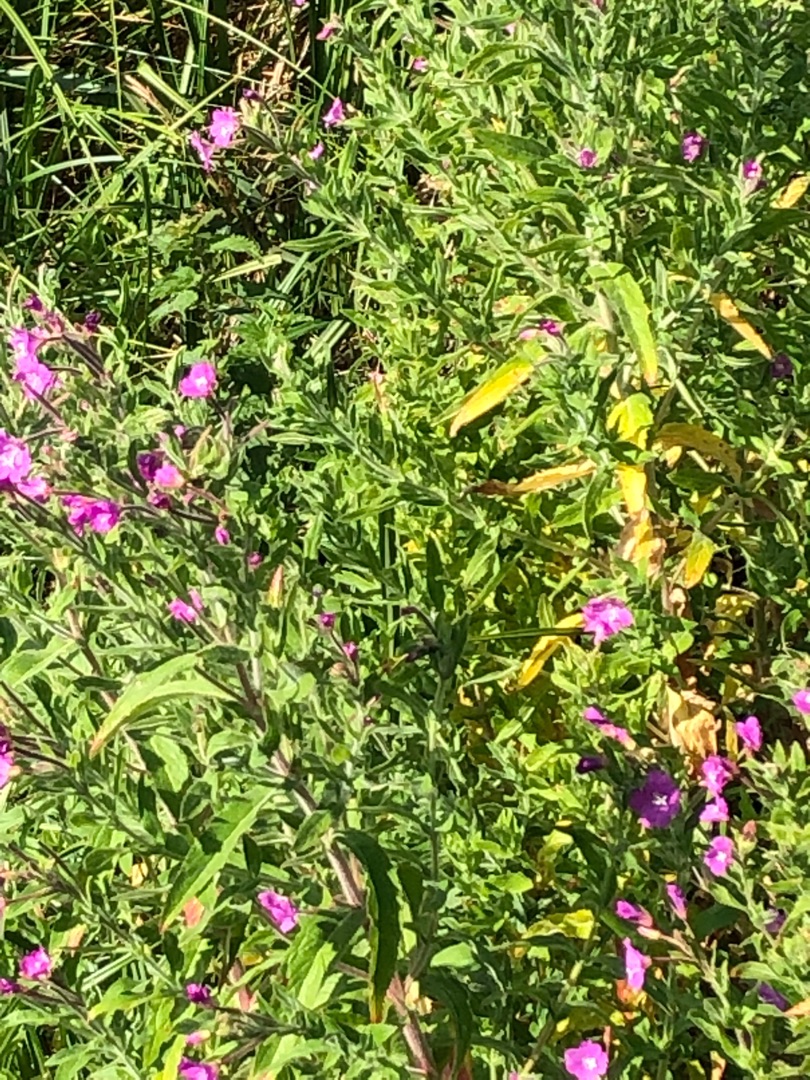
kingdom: Plantae
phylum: Tracheophyta
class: Magnoliopsida
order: Myrtales
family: Onagraceae
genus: Epilobium
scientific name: Epilobium hirsutum
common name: Lådden dueurt
